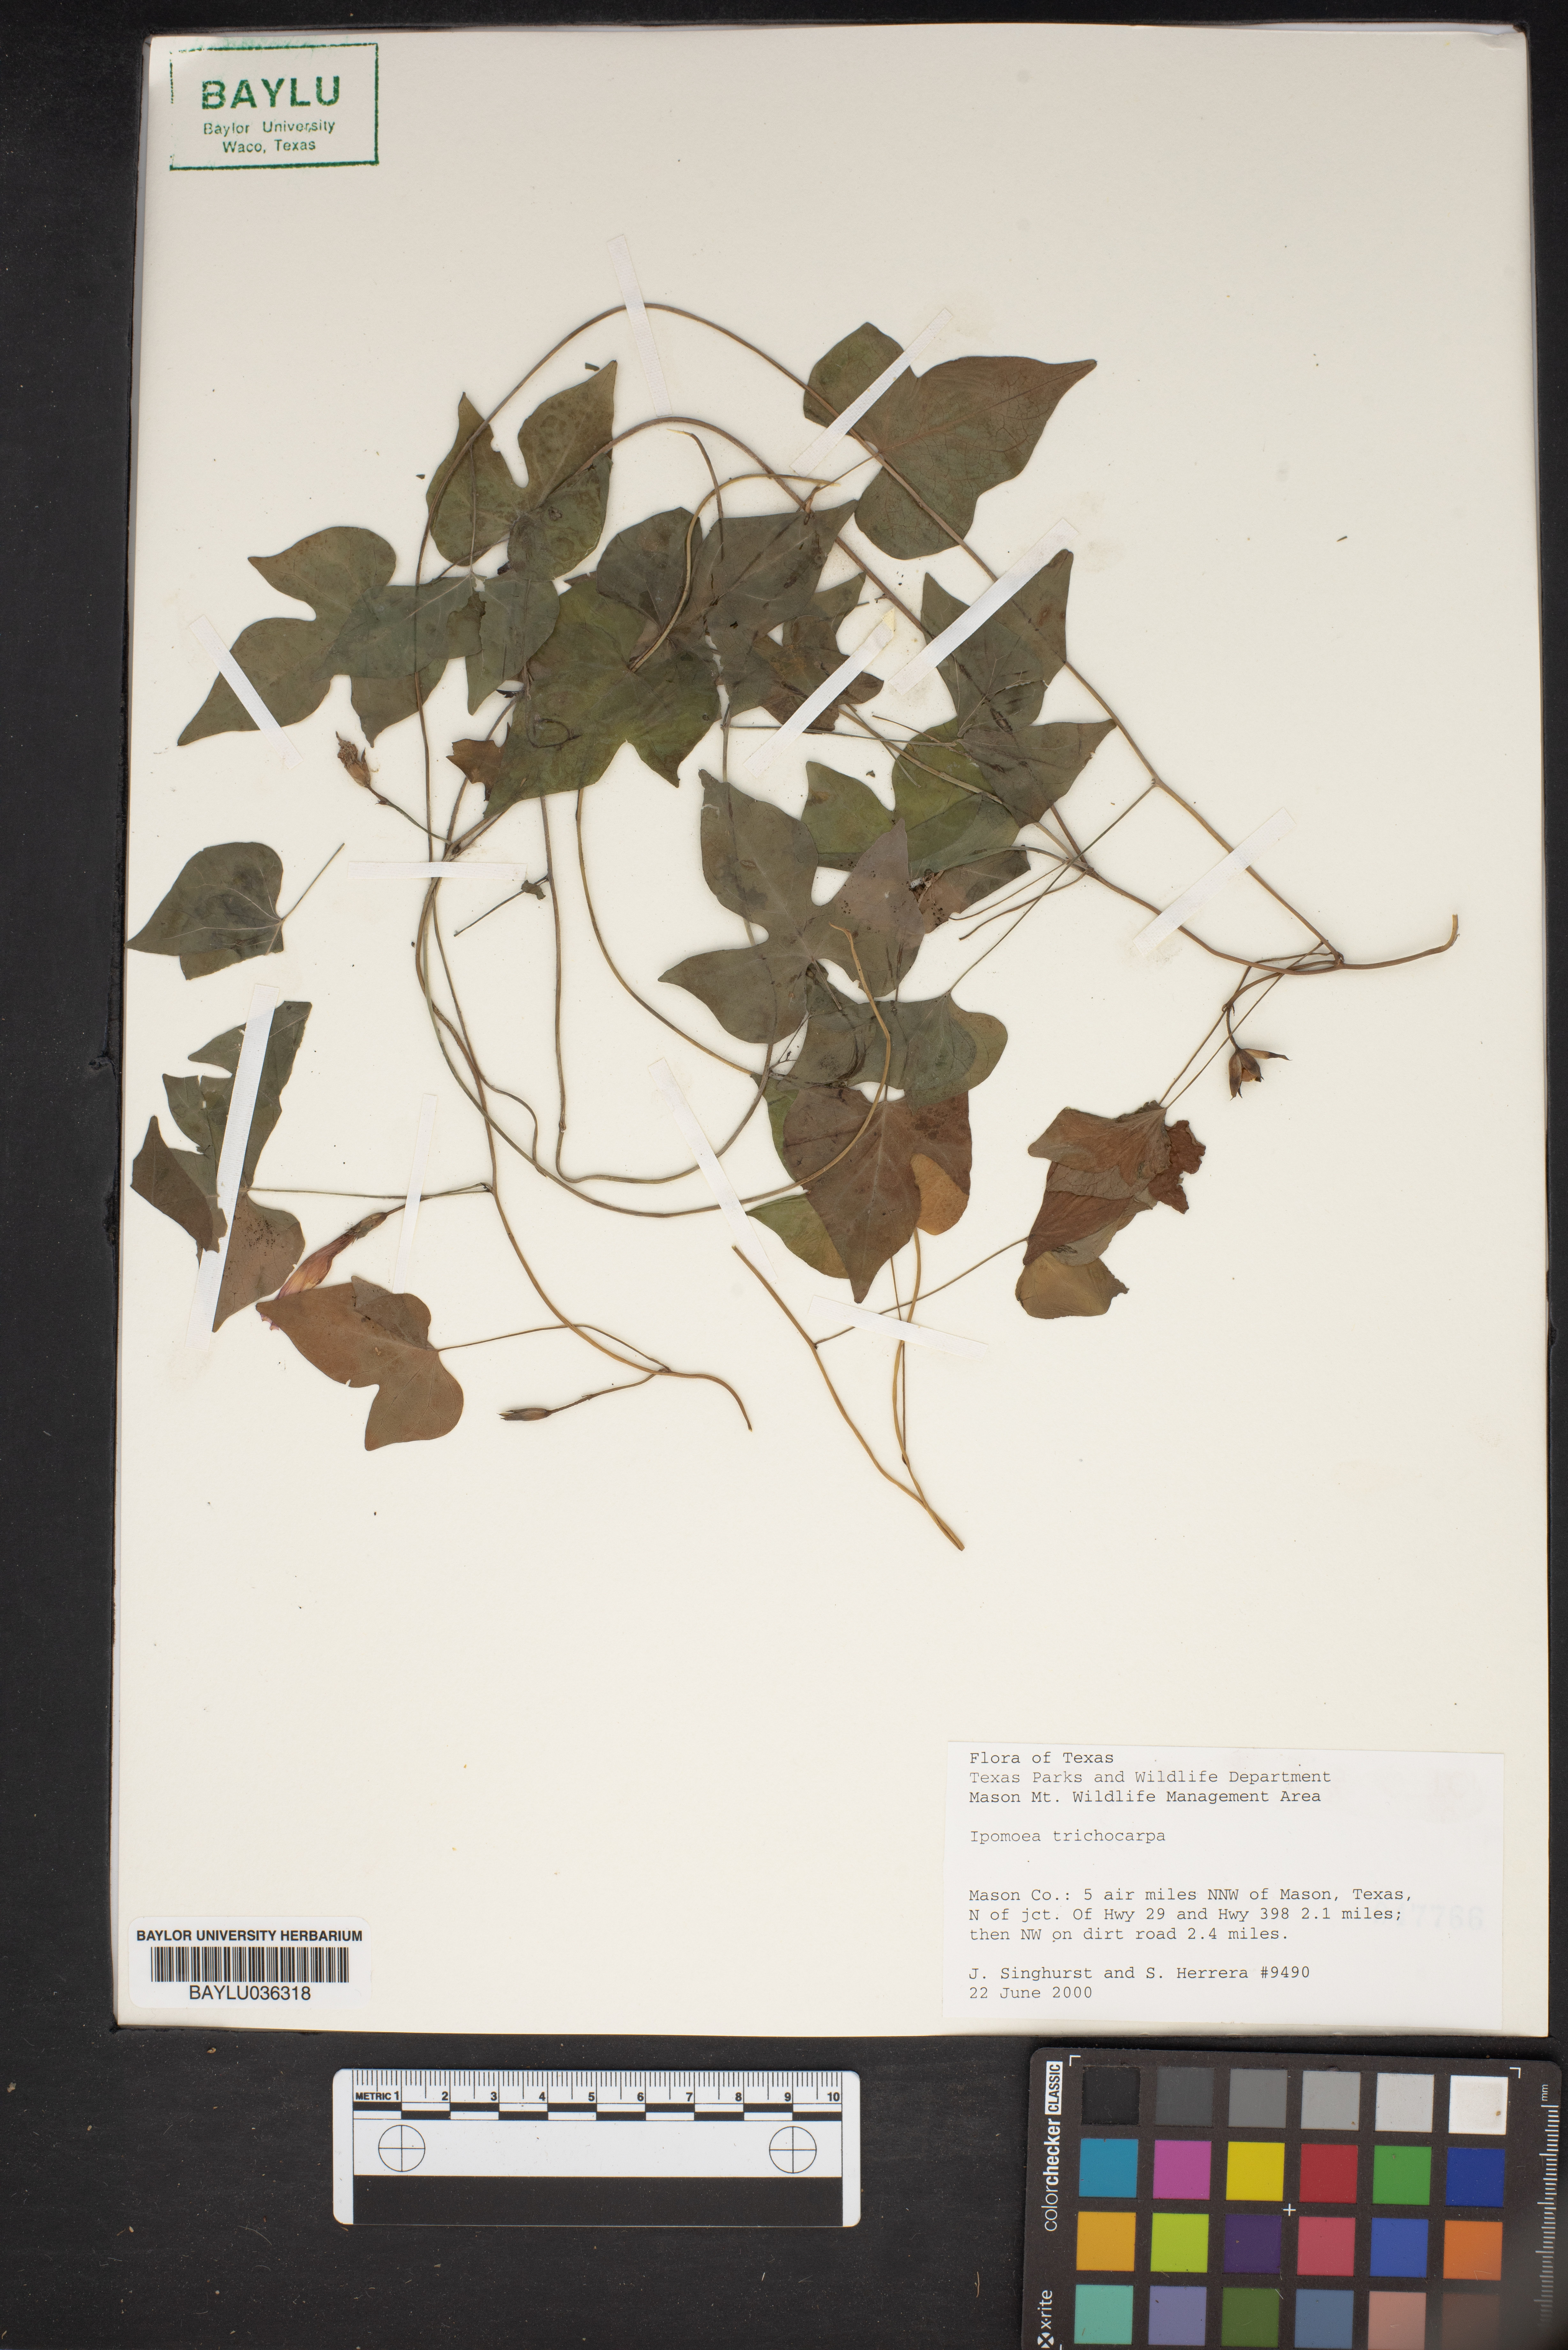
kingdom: Plantae
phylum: Tracheophyta
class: Magnoliopsida
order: Solanales
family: Convolvulaceae
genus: Ipomoea
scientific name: Ipomoea cordatotriloba
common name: Cotton morning glory
